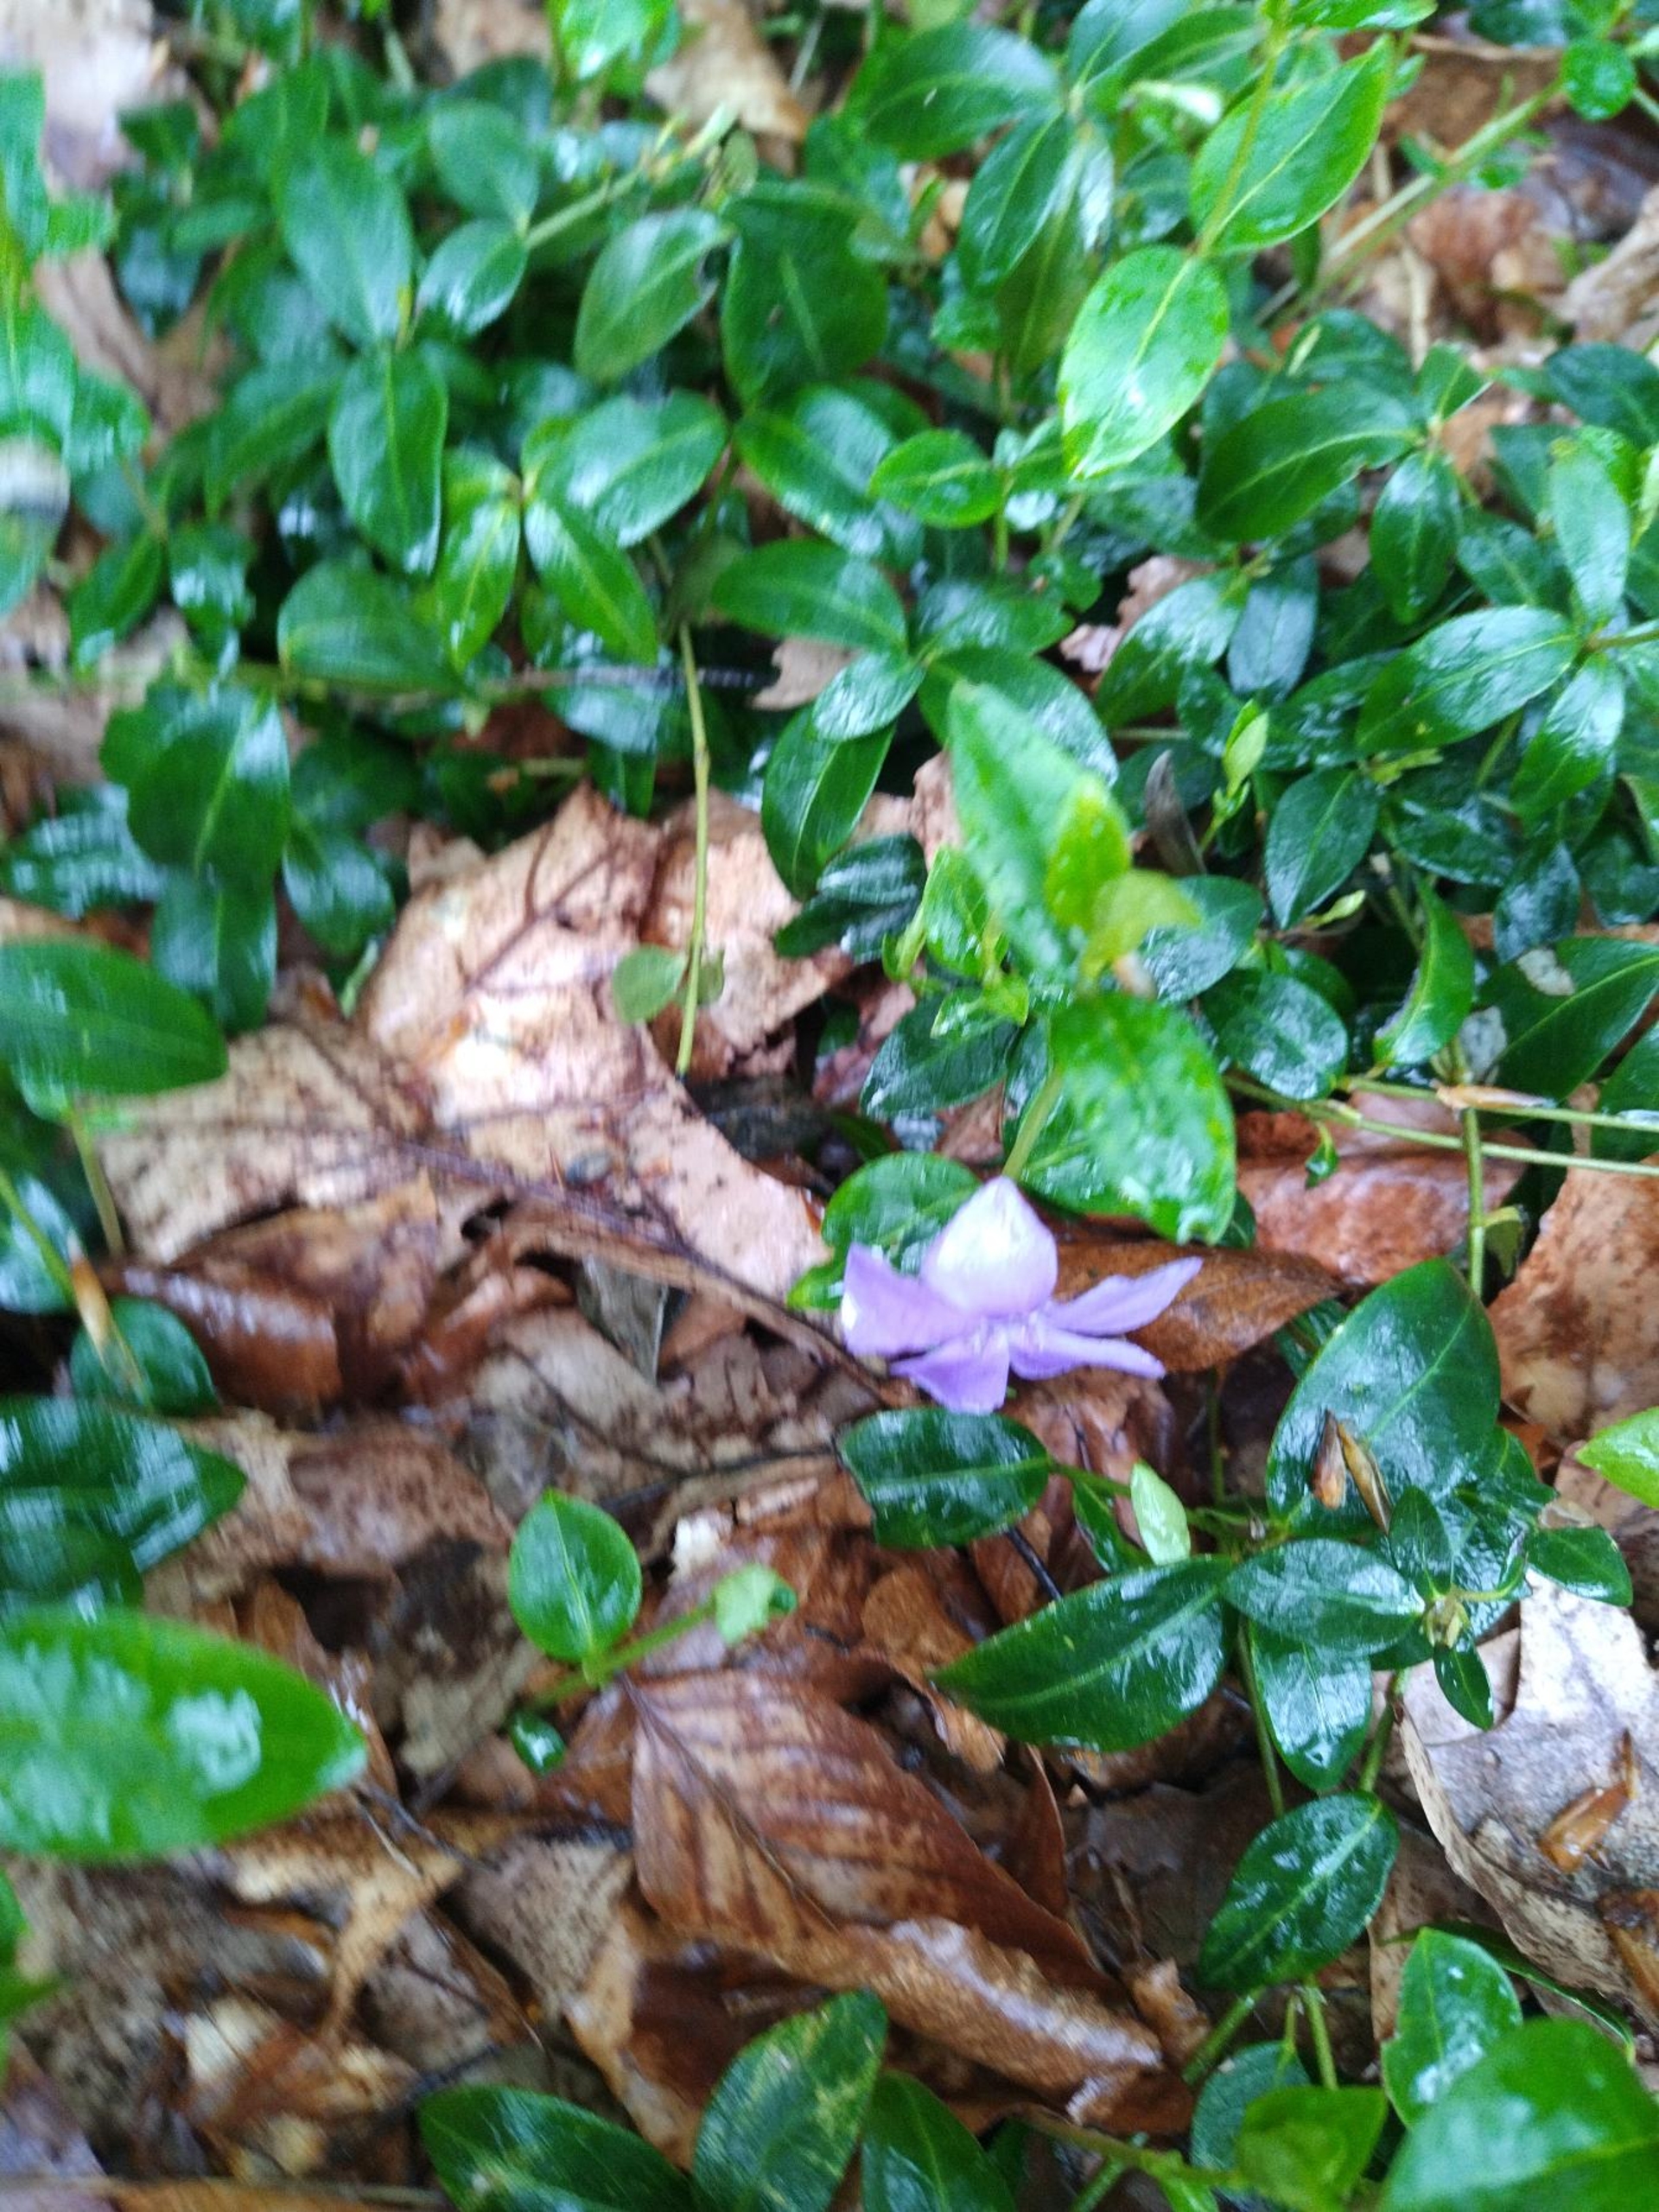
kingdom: Plantae
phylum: Tracheophyta
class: Magnoliopsida
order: Gentianales
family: Apocynaceae
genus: Vinca
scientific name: Vinca minor
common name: Liden singrøn
